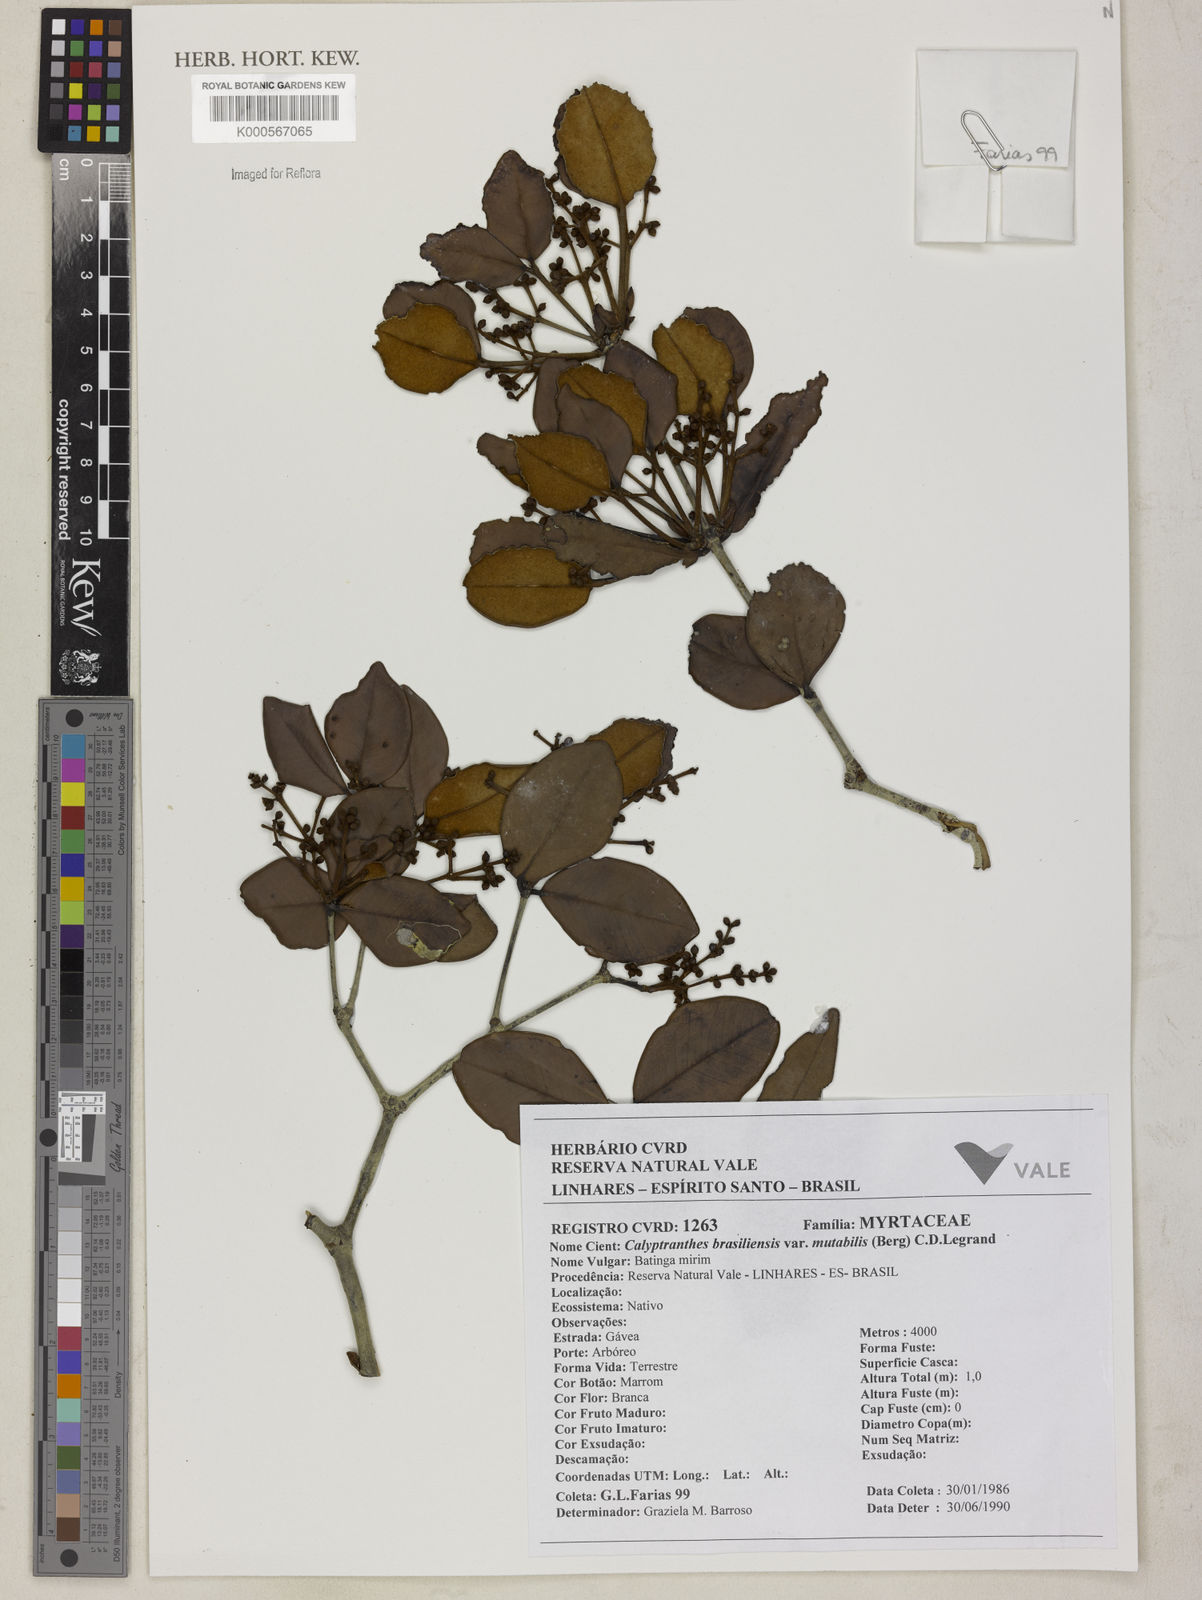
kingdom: Plantae
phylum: Tracheophyta
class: Magnoliopsida
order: Myrtales
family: Myrtaceae
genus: Myrcia
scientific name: Myrcia neobrasiliensis
